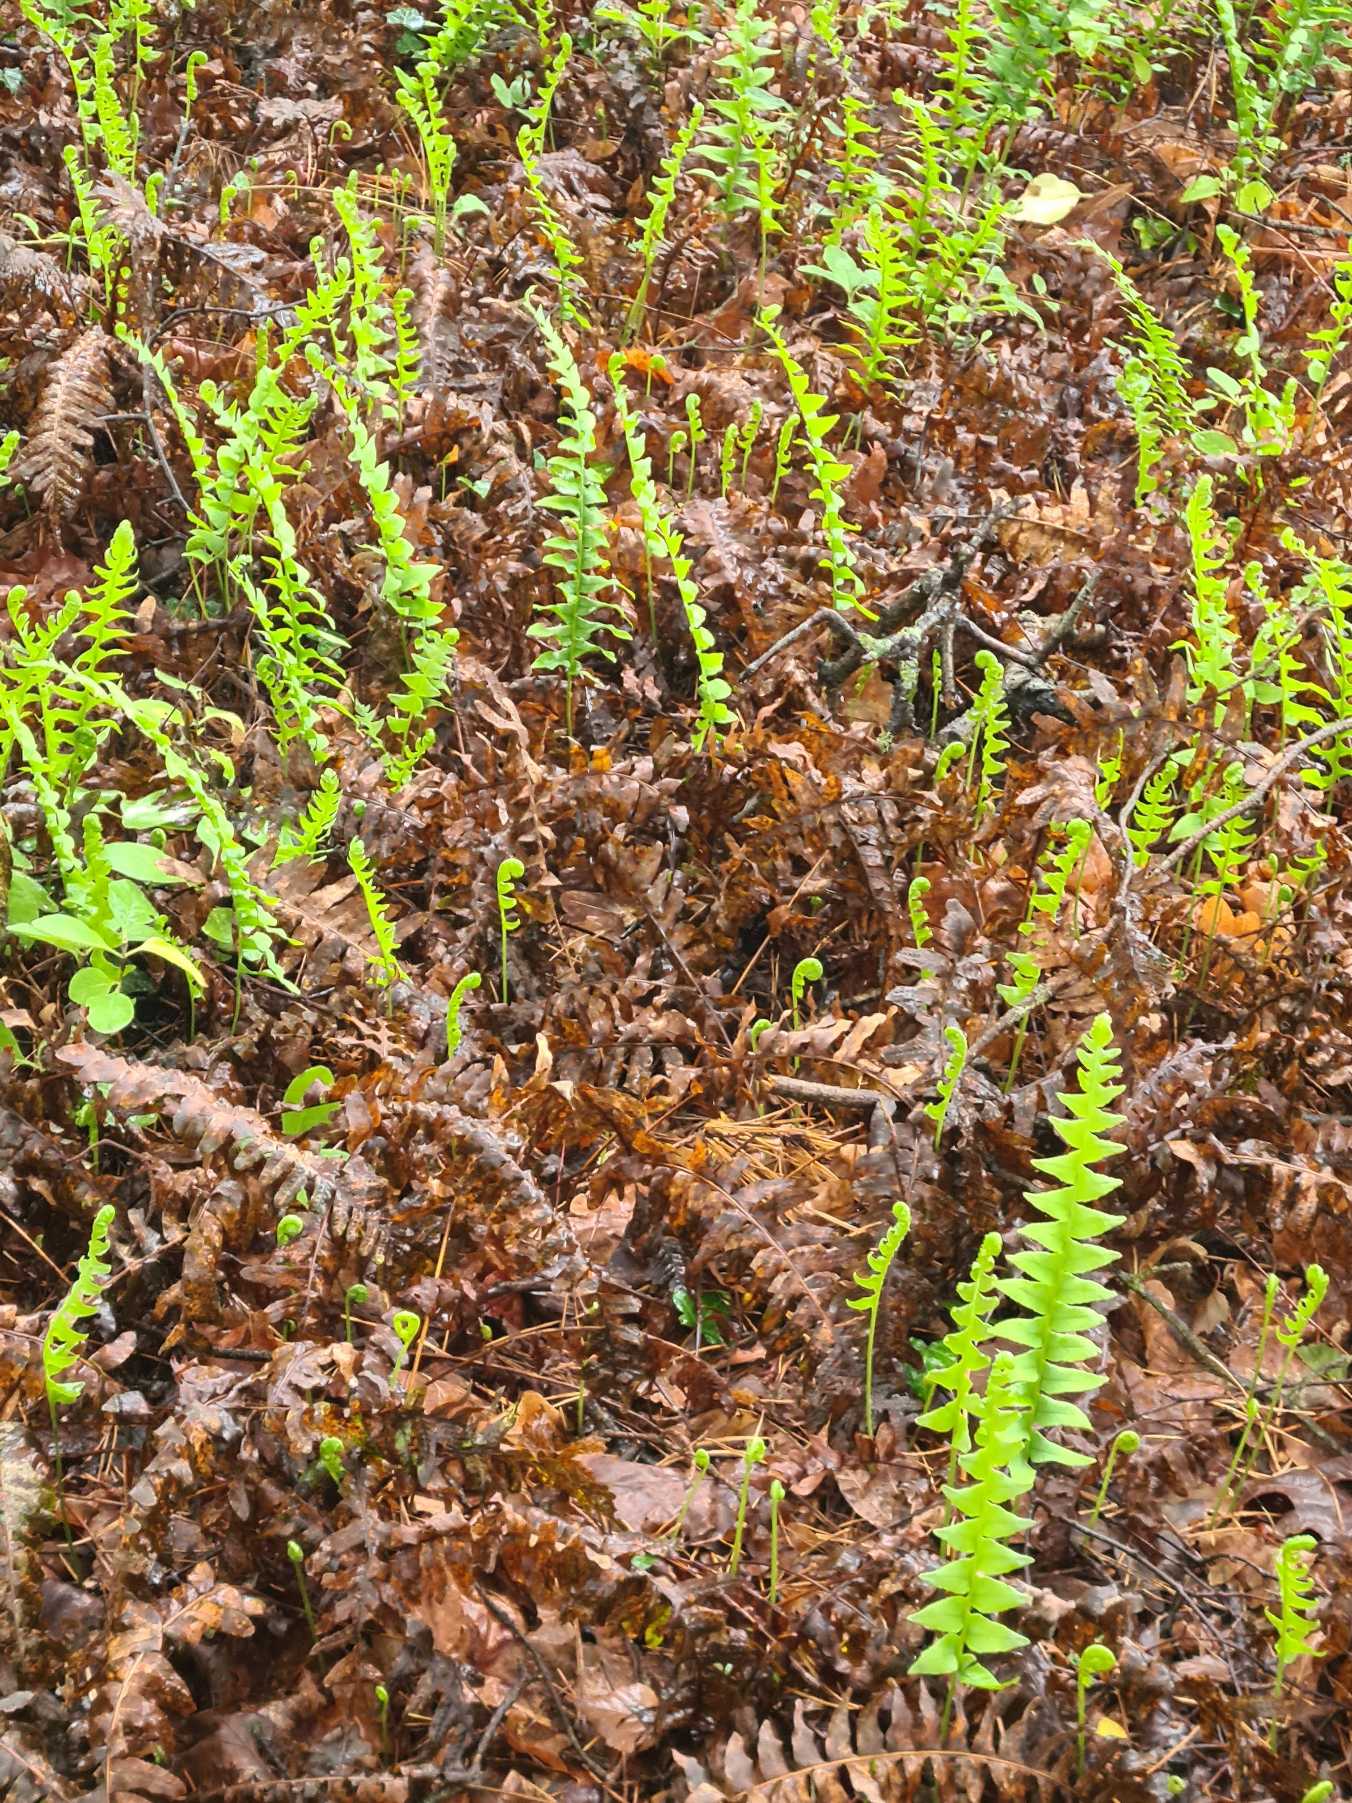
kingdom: Plantae
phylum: Tracheophyta
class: Polypodiopsida
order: Polypodiales
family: Polypodiaceae
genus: Polypodium
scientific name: Polypodium vulgare
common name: Almindelig engelsød
